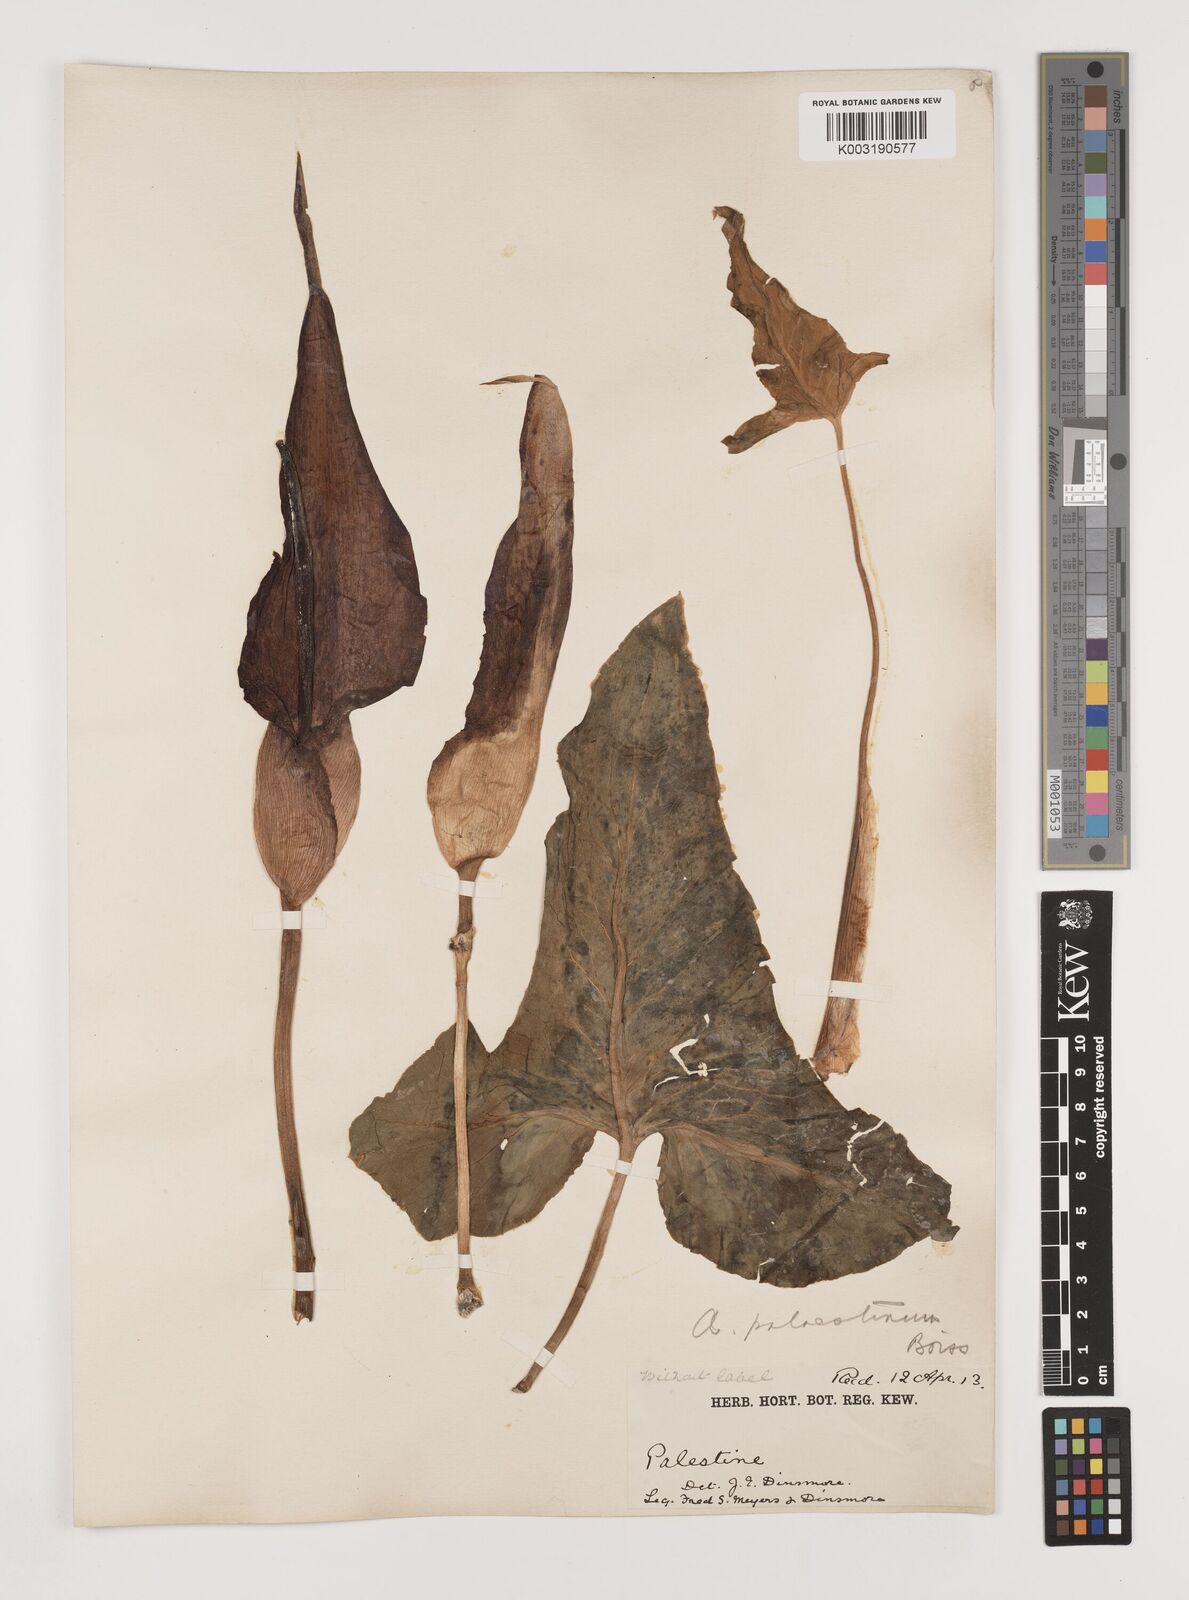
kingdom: Plantae
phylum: Tracheophyta
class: Liliopsida
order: Alismatales
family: Araceae
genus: Arum
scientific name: Arum palaestinum
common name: Solomon's lily
